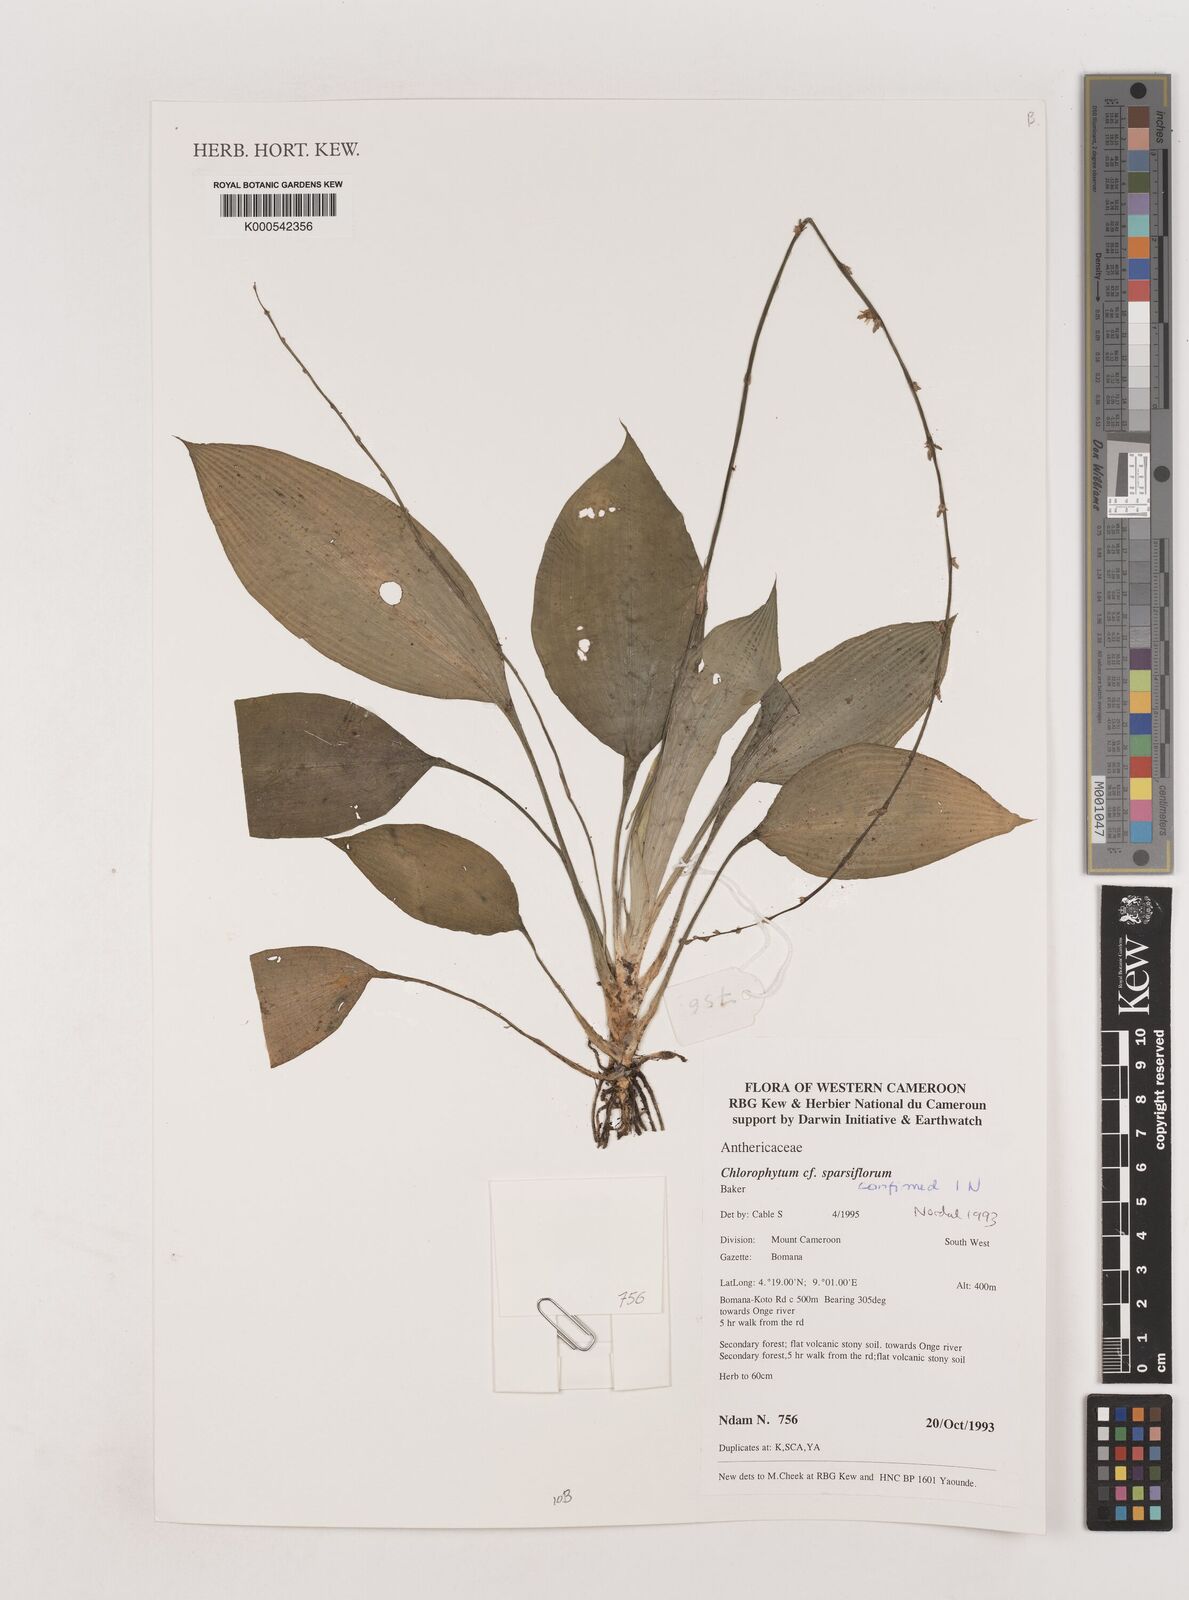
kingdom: Plantae
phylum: Tracheophyta
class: Liliopsida
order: Asparagales
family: Asparagaceae
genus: Chlorophytum
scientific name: Chlorophytum sparsiflorum
